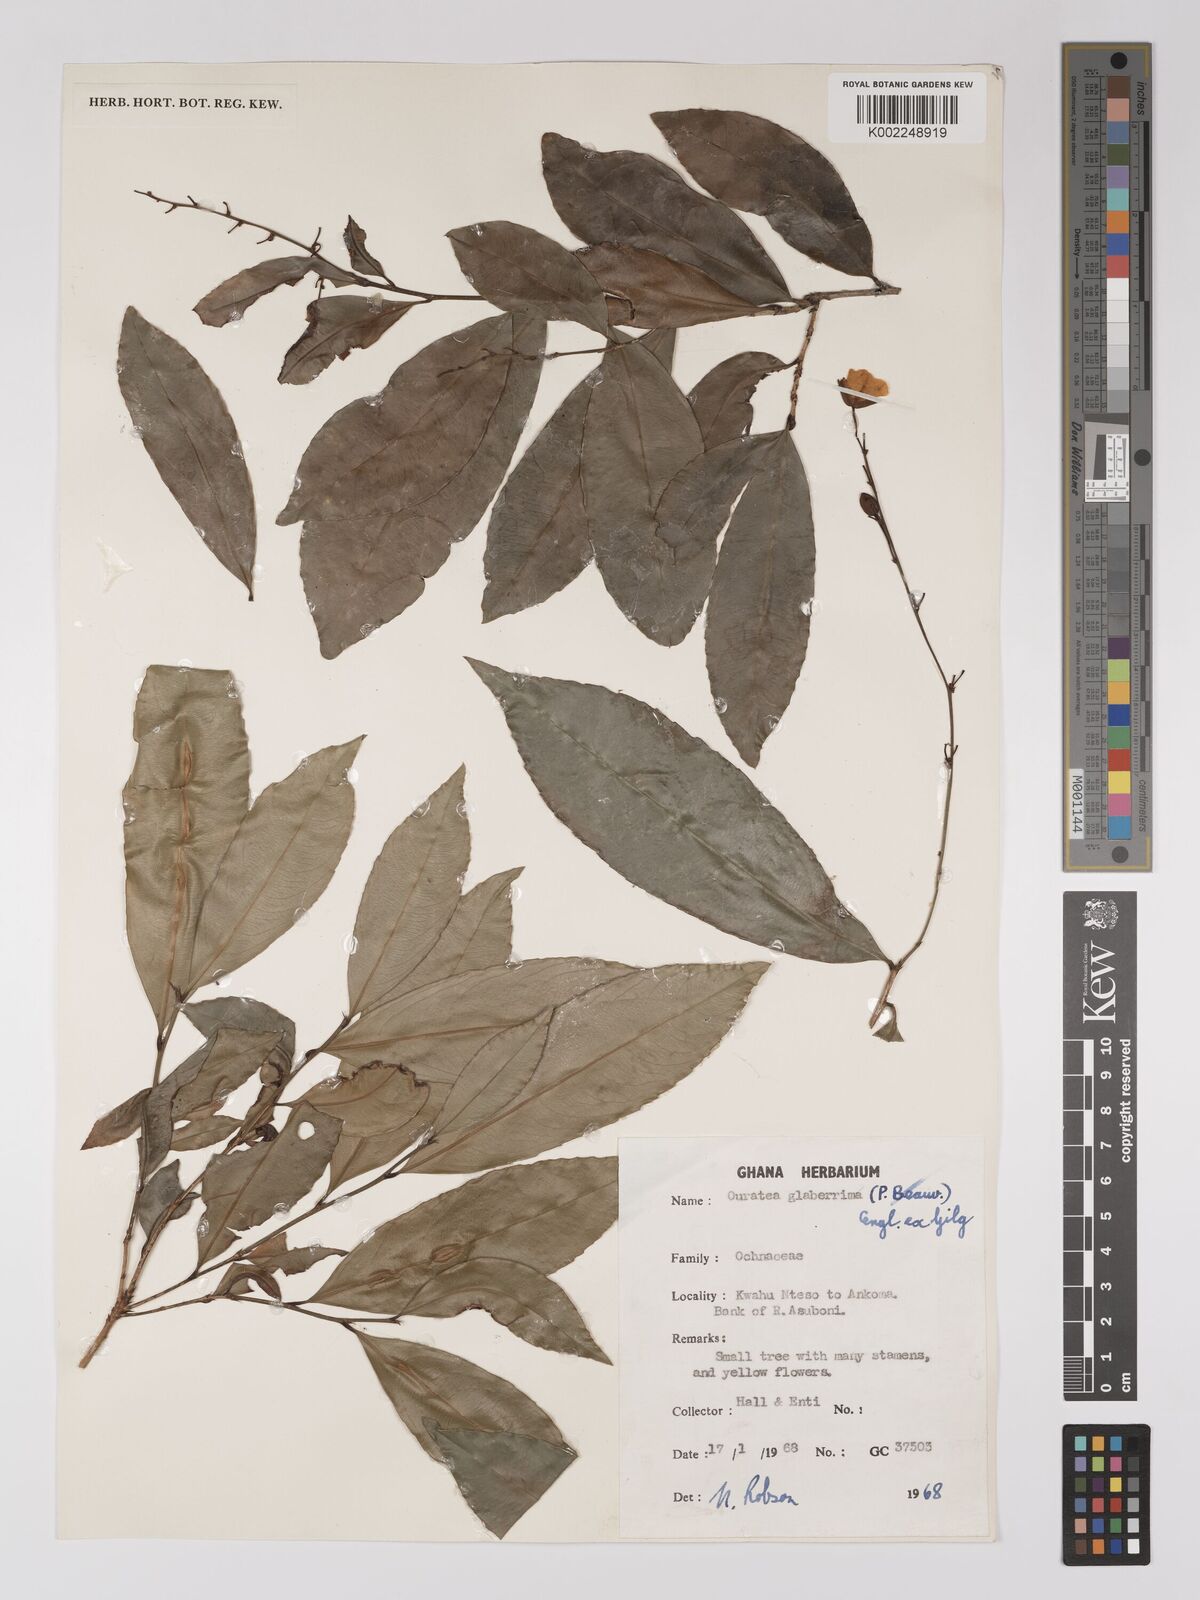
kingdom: Plantae
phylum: Tracheophyta
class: Magnoliopsida
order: Malpighiales
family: Ochnaceae
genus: Campylospermum
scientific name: Campylospermum glaberrimum
